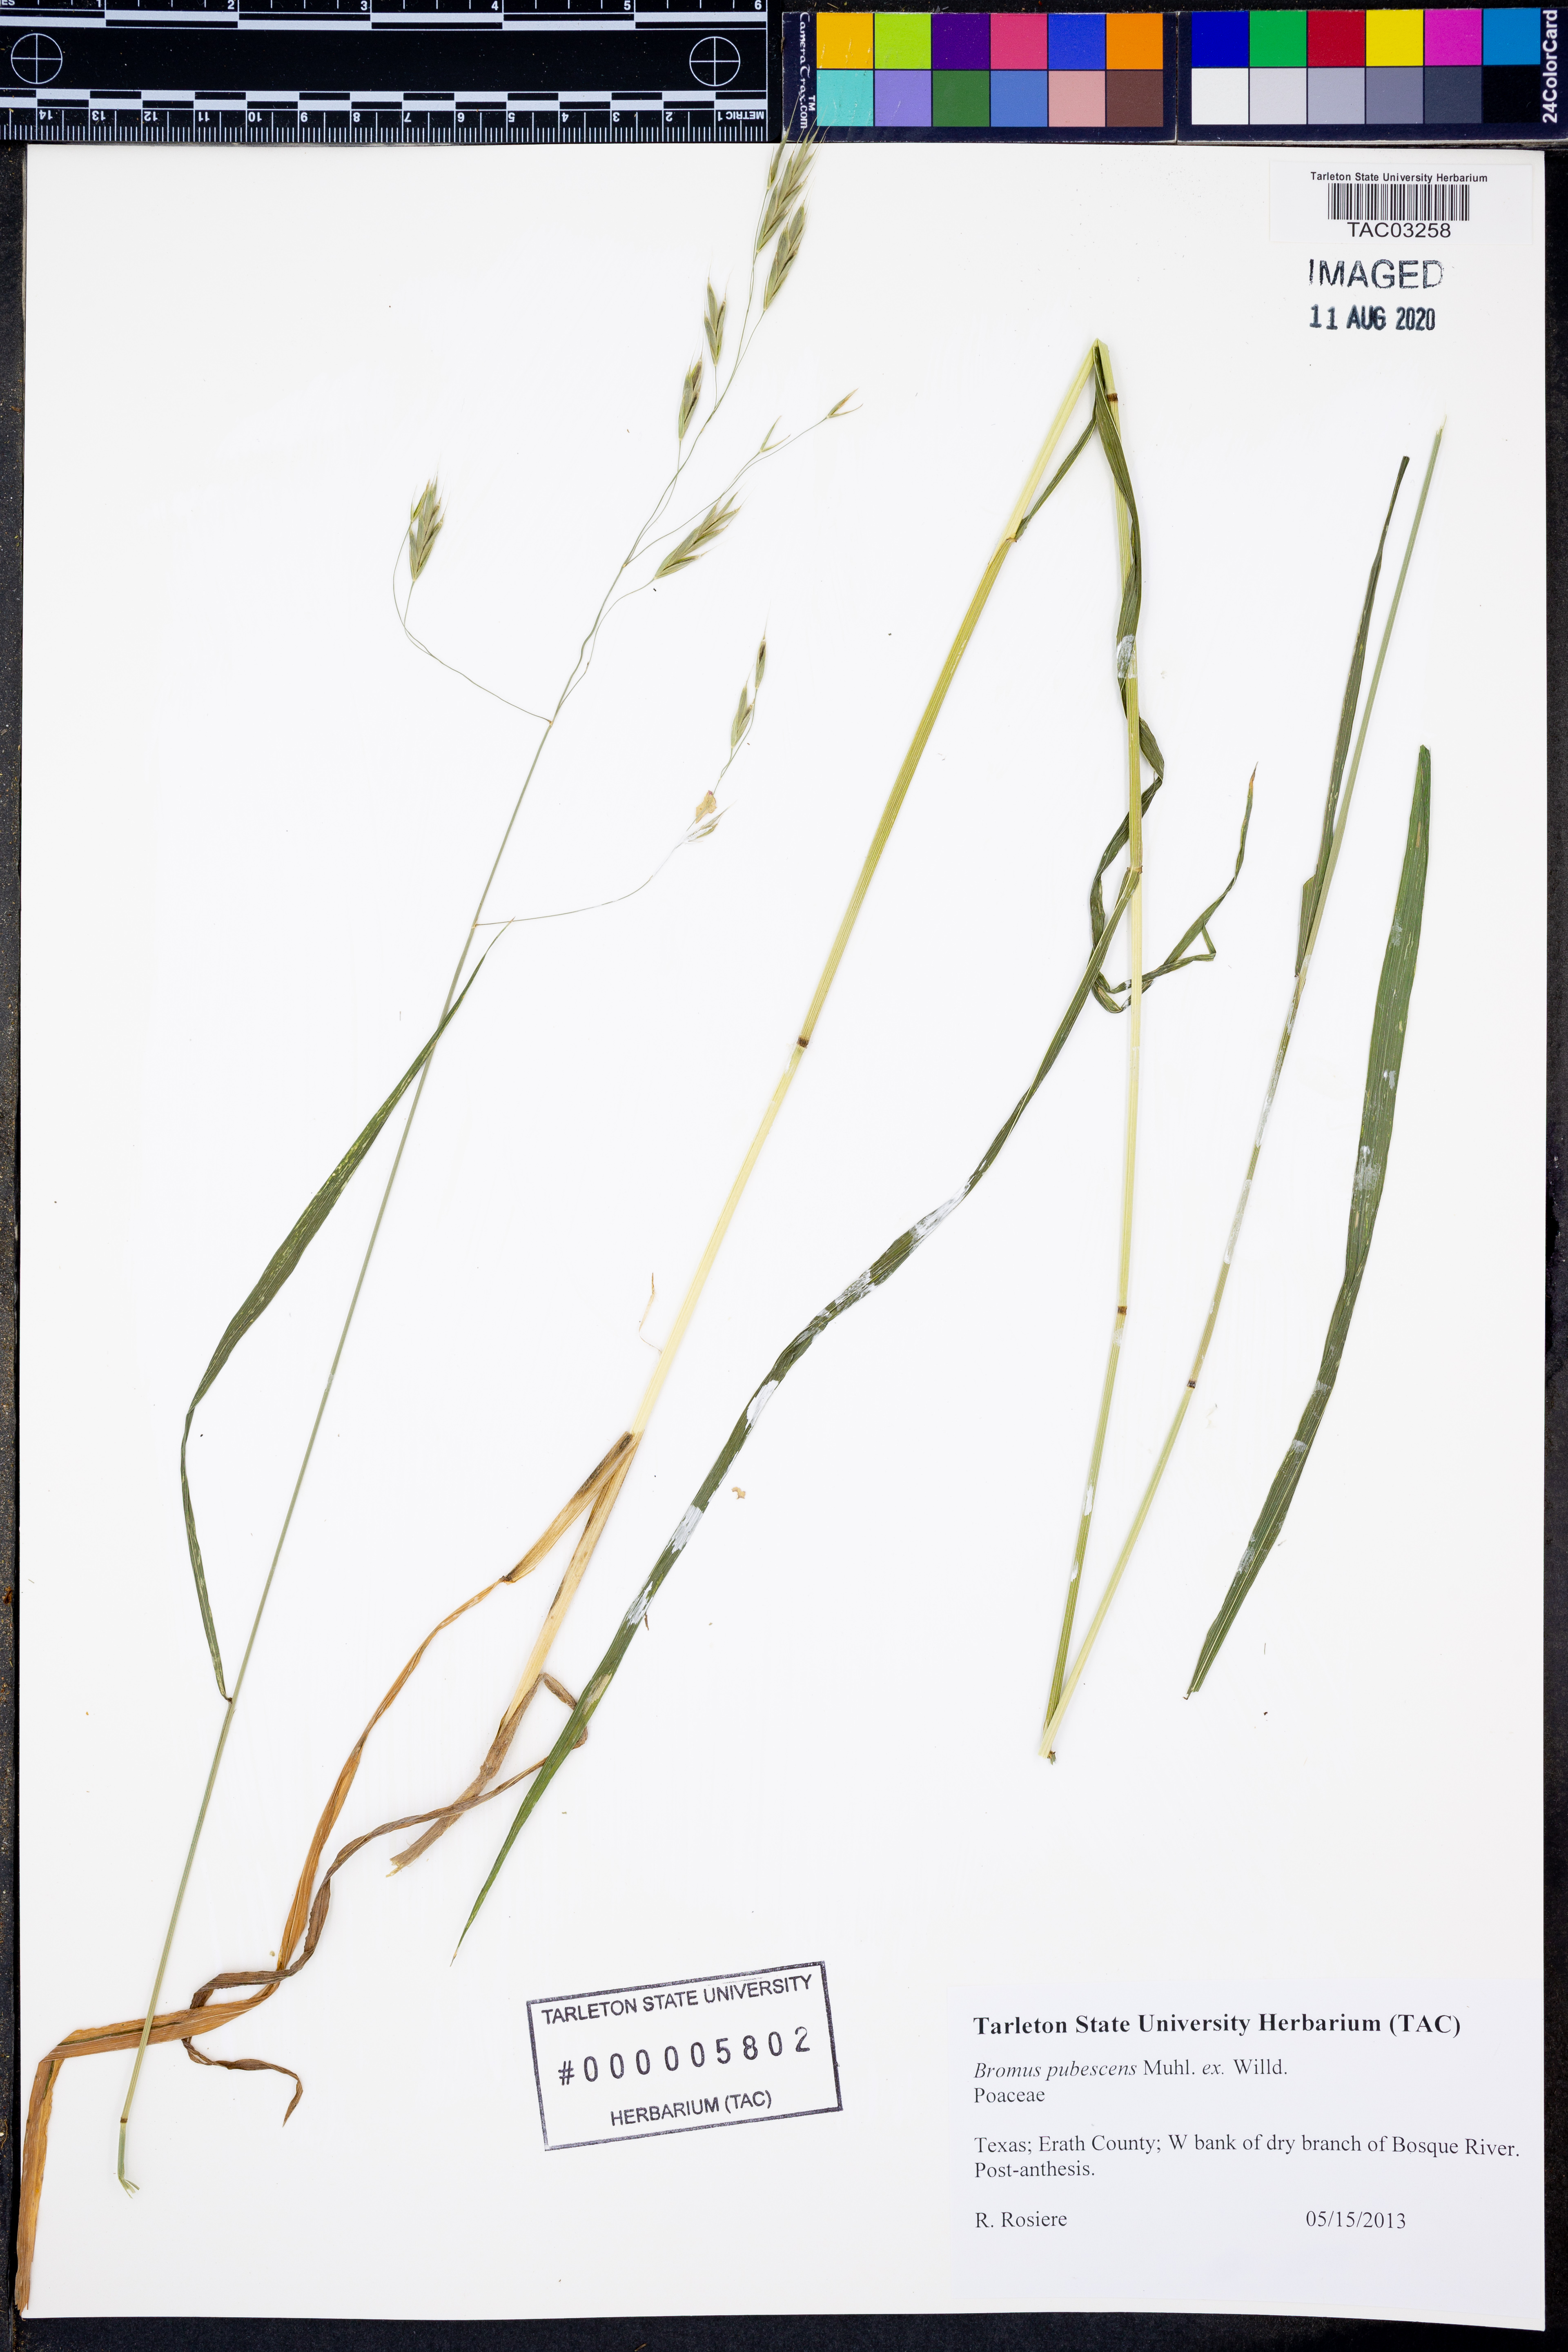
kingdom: Plantae
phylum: Tracheophyta
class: Liliopsida
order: Poales
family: Poaceae
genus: Bromus
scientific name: Bromus japonicus
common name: Japanese brome
